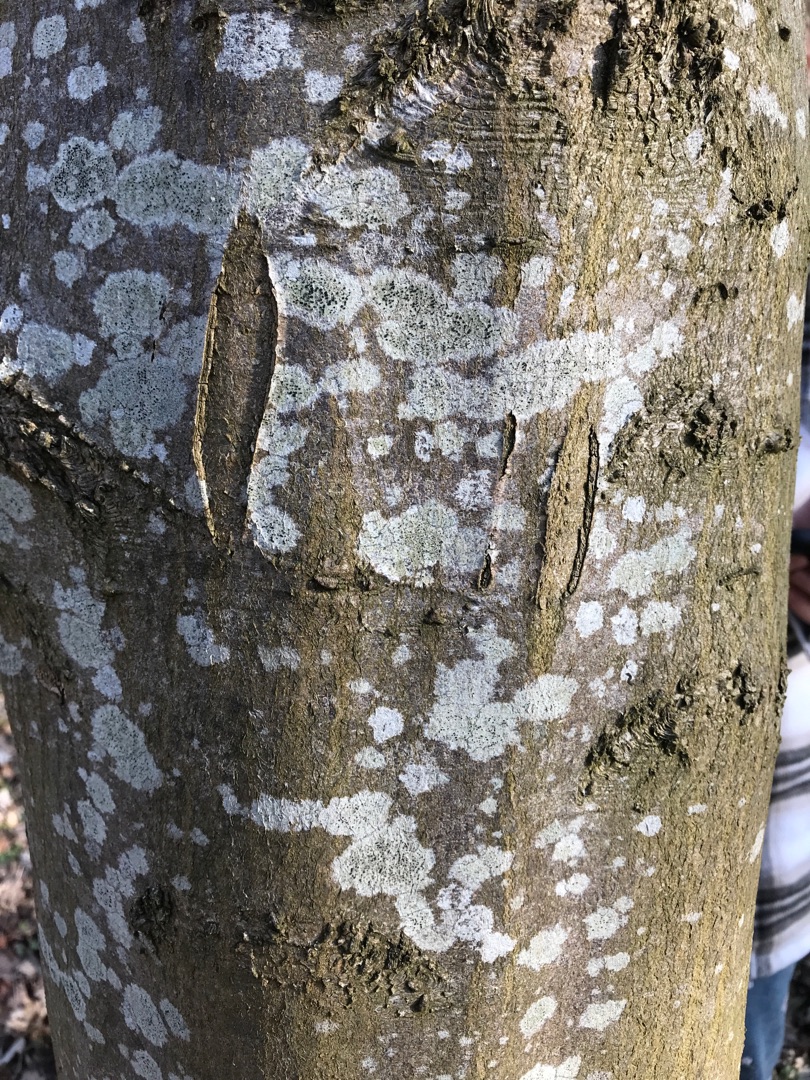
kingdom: Fungi
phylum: Ascomycota
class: Lecanoromycetes
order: Lecanorales
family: Lecanoraceae
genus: Lecidella
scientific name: Lecidella elaeochroma
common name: Grågrøn skivelav
